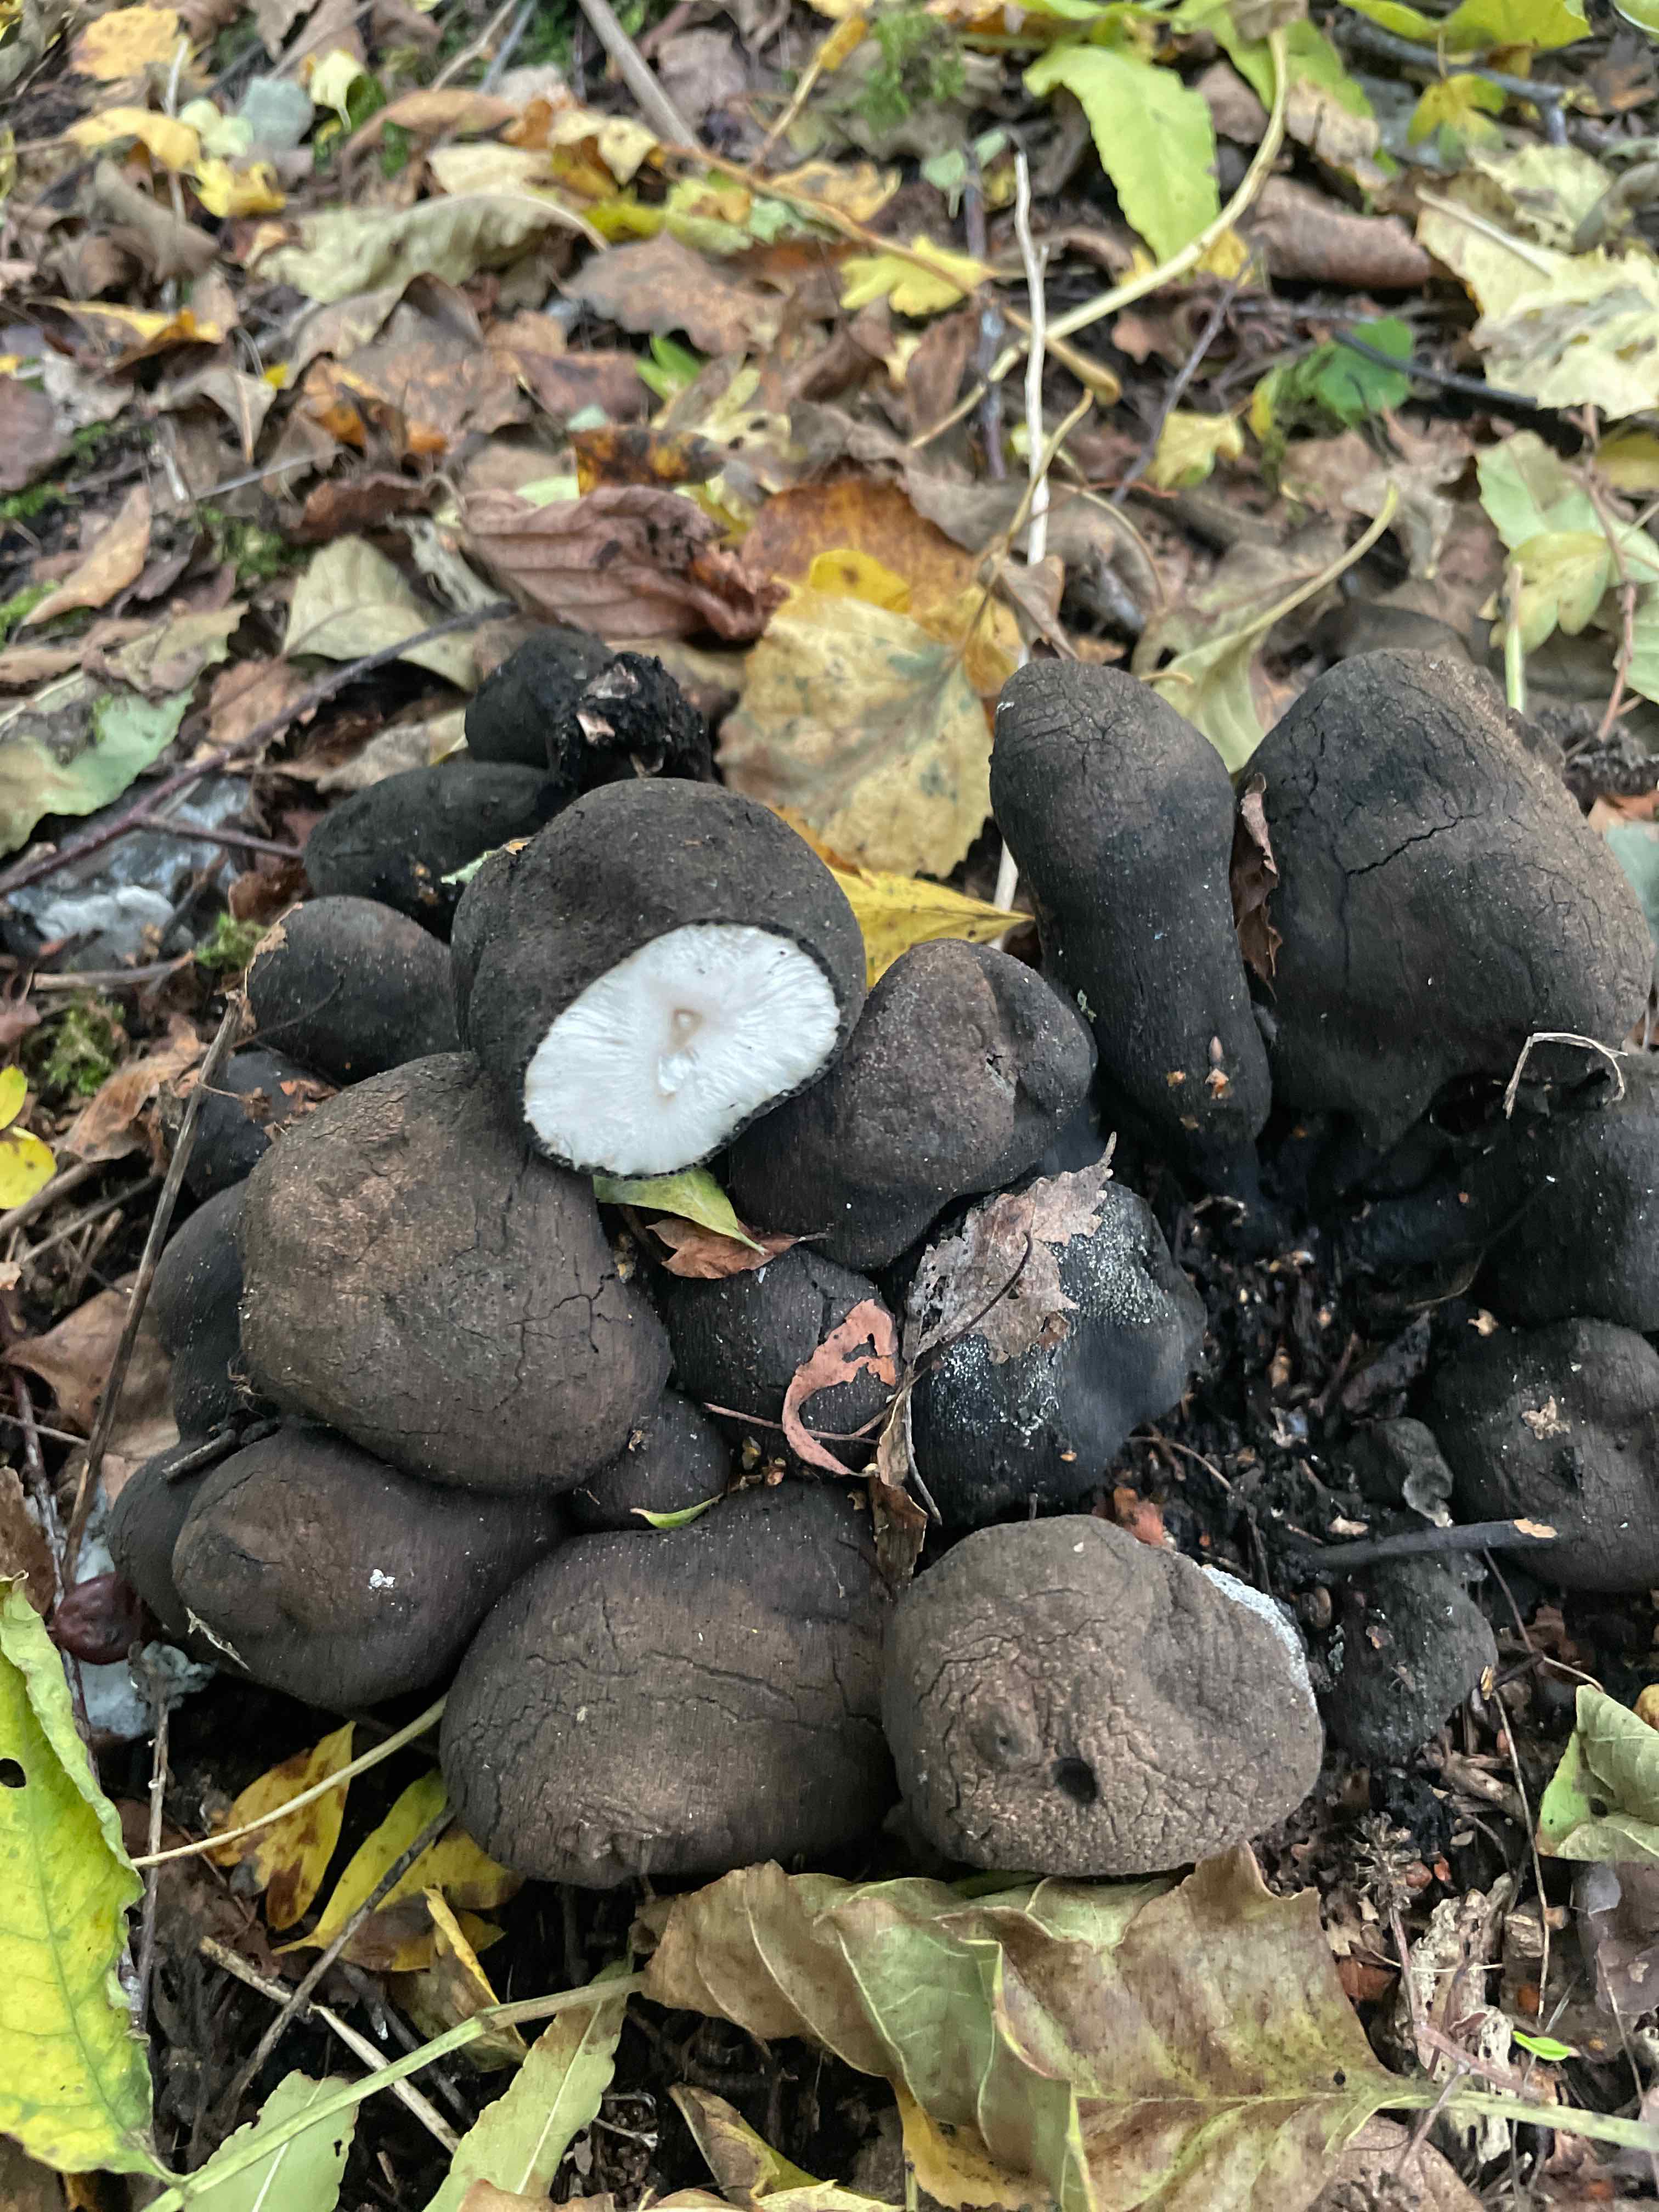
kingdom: Fungi
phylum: Ascomycota
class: Sordariomycetes
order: Xylariales
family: Xylariaceae
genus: Xylaria
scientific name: Xylaria polymorpha
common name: kølle-stødsvamp
